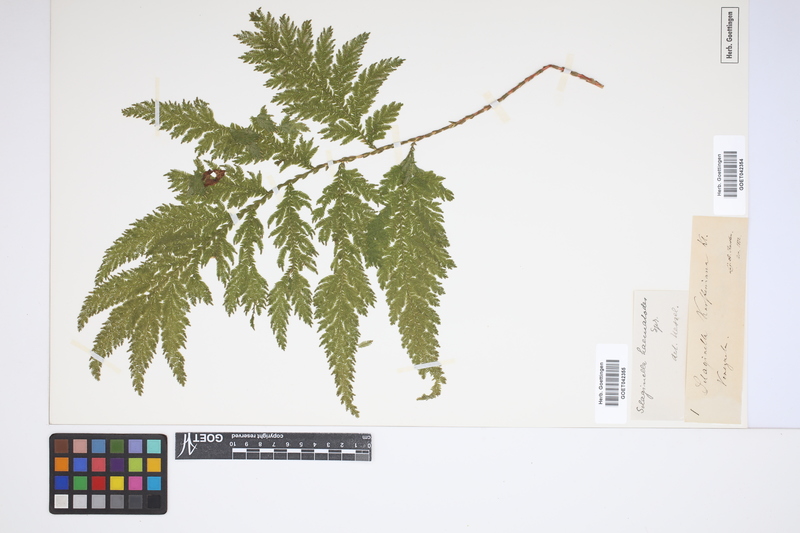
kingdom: Plantae
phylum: Tracheophyta
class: Lycopodiopsida
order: Selaginellales
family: Selaginellaceae
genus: Selaginella
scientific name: Selaginella haematodes
